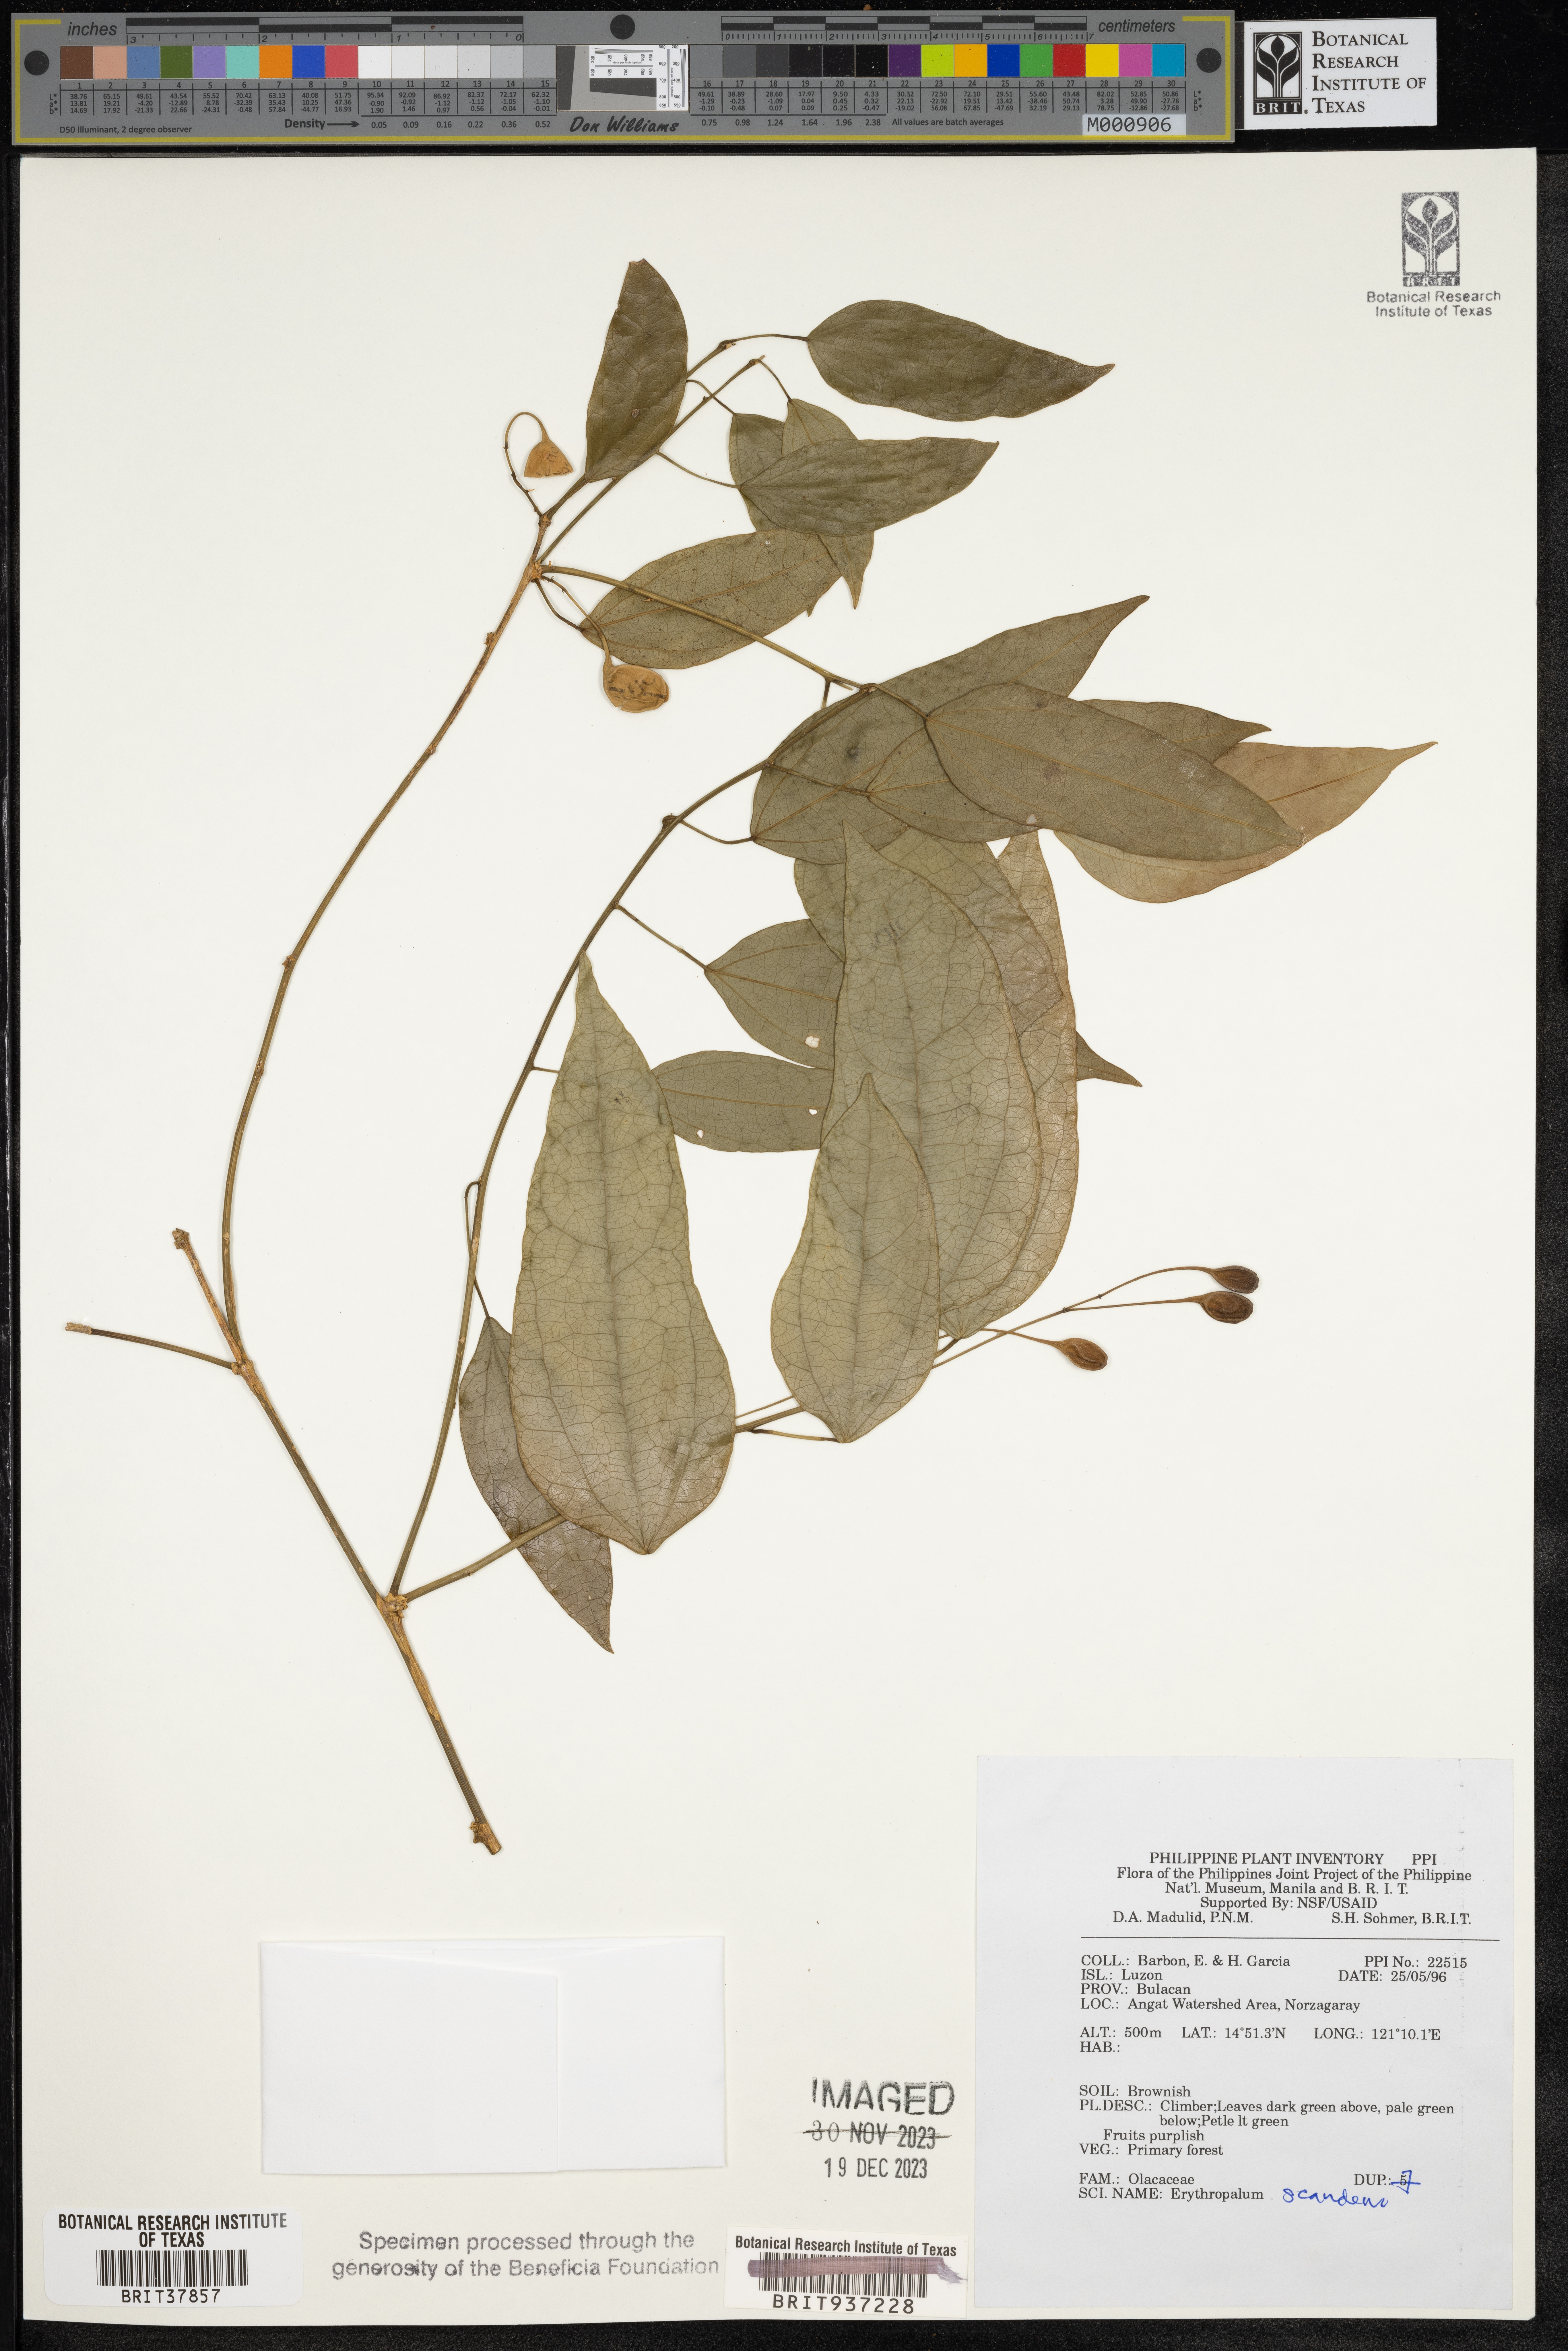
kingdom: Plantae
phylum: Tracheophyta
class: Magnoliopsida
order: Santalales
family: Erythropalaceae
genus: Erythropalum
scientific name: Erythropalum scandens
